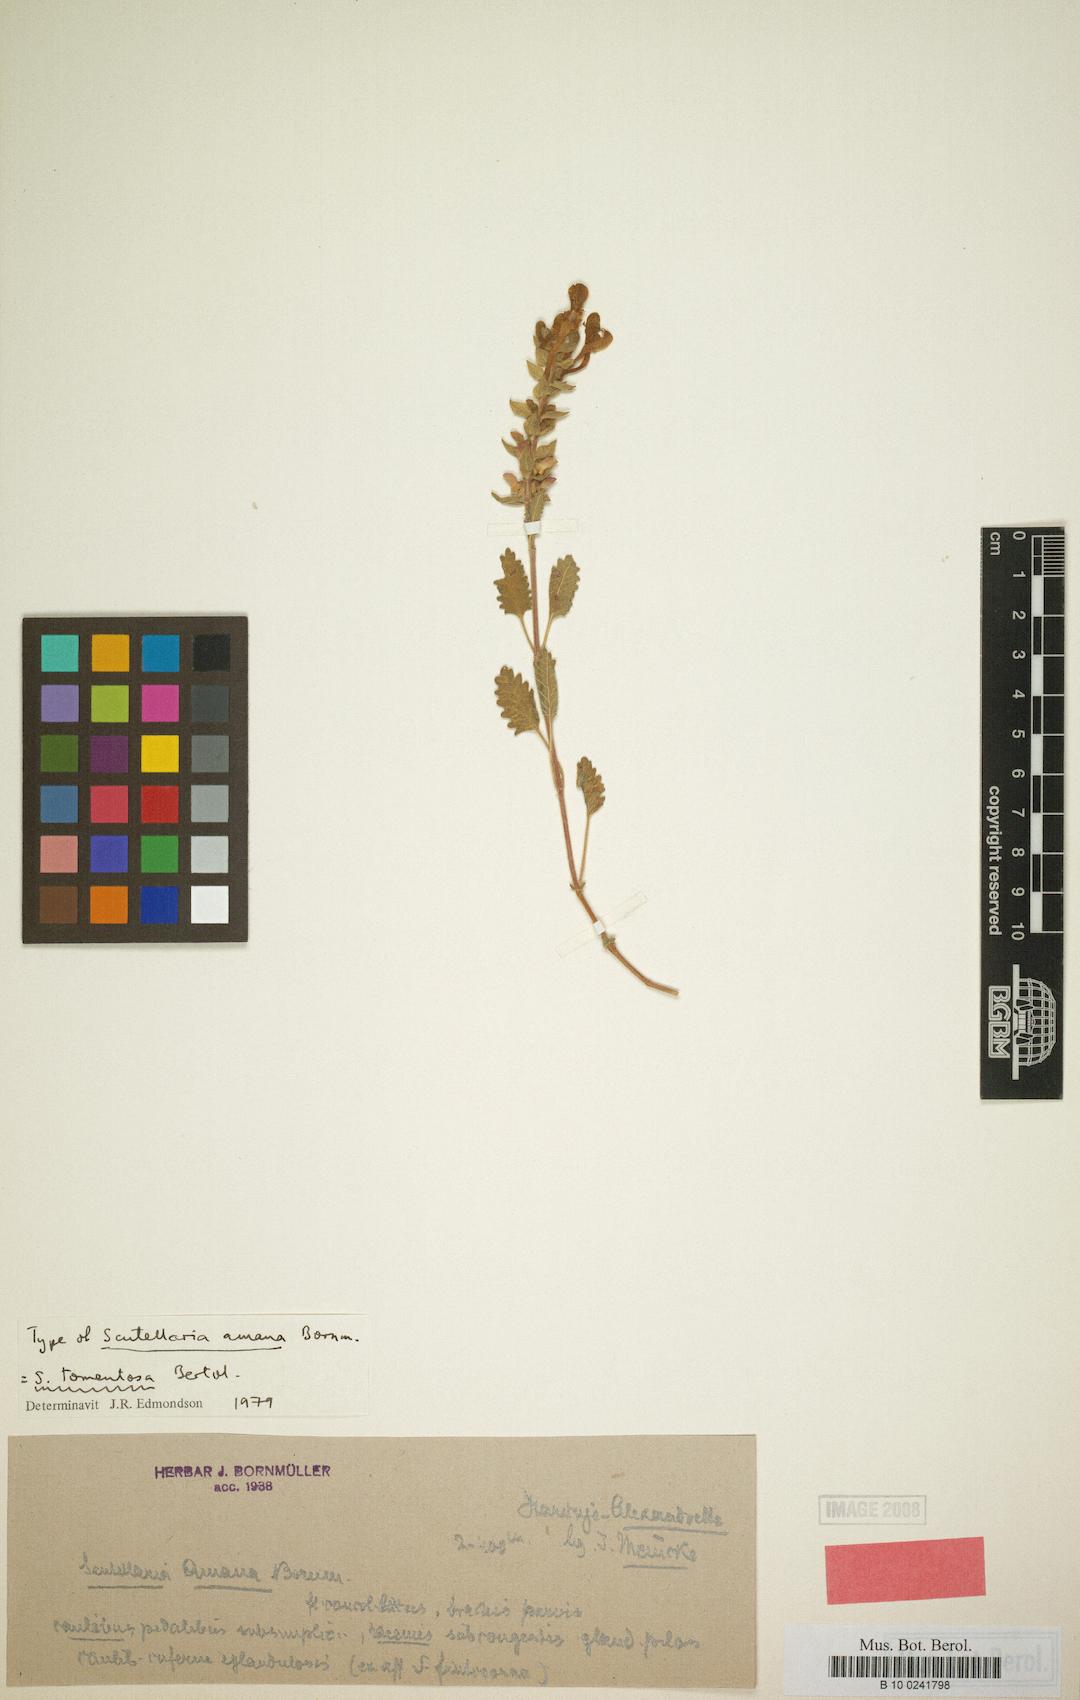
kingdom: Plantae
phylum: Tracheophyta
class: Magnoliopsida
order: Lamiales
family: Lamiaceae
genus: Scutellaria
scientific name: Scutellaria dombeyi
